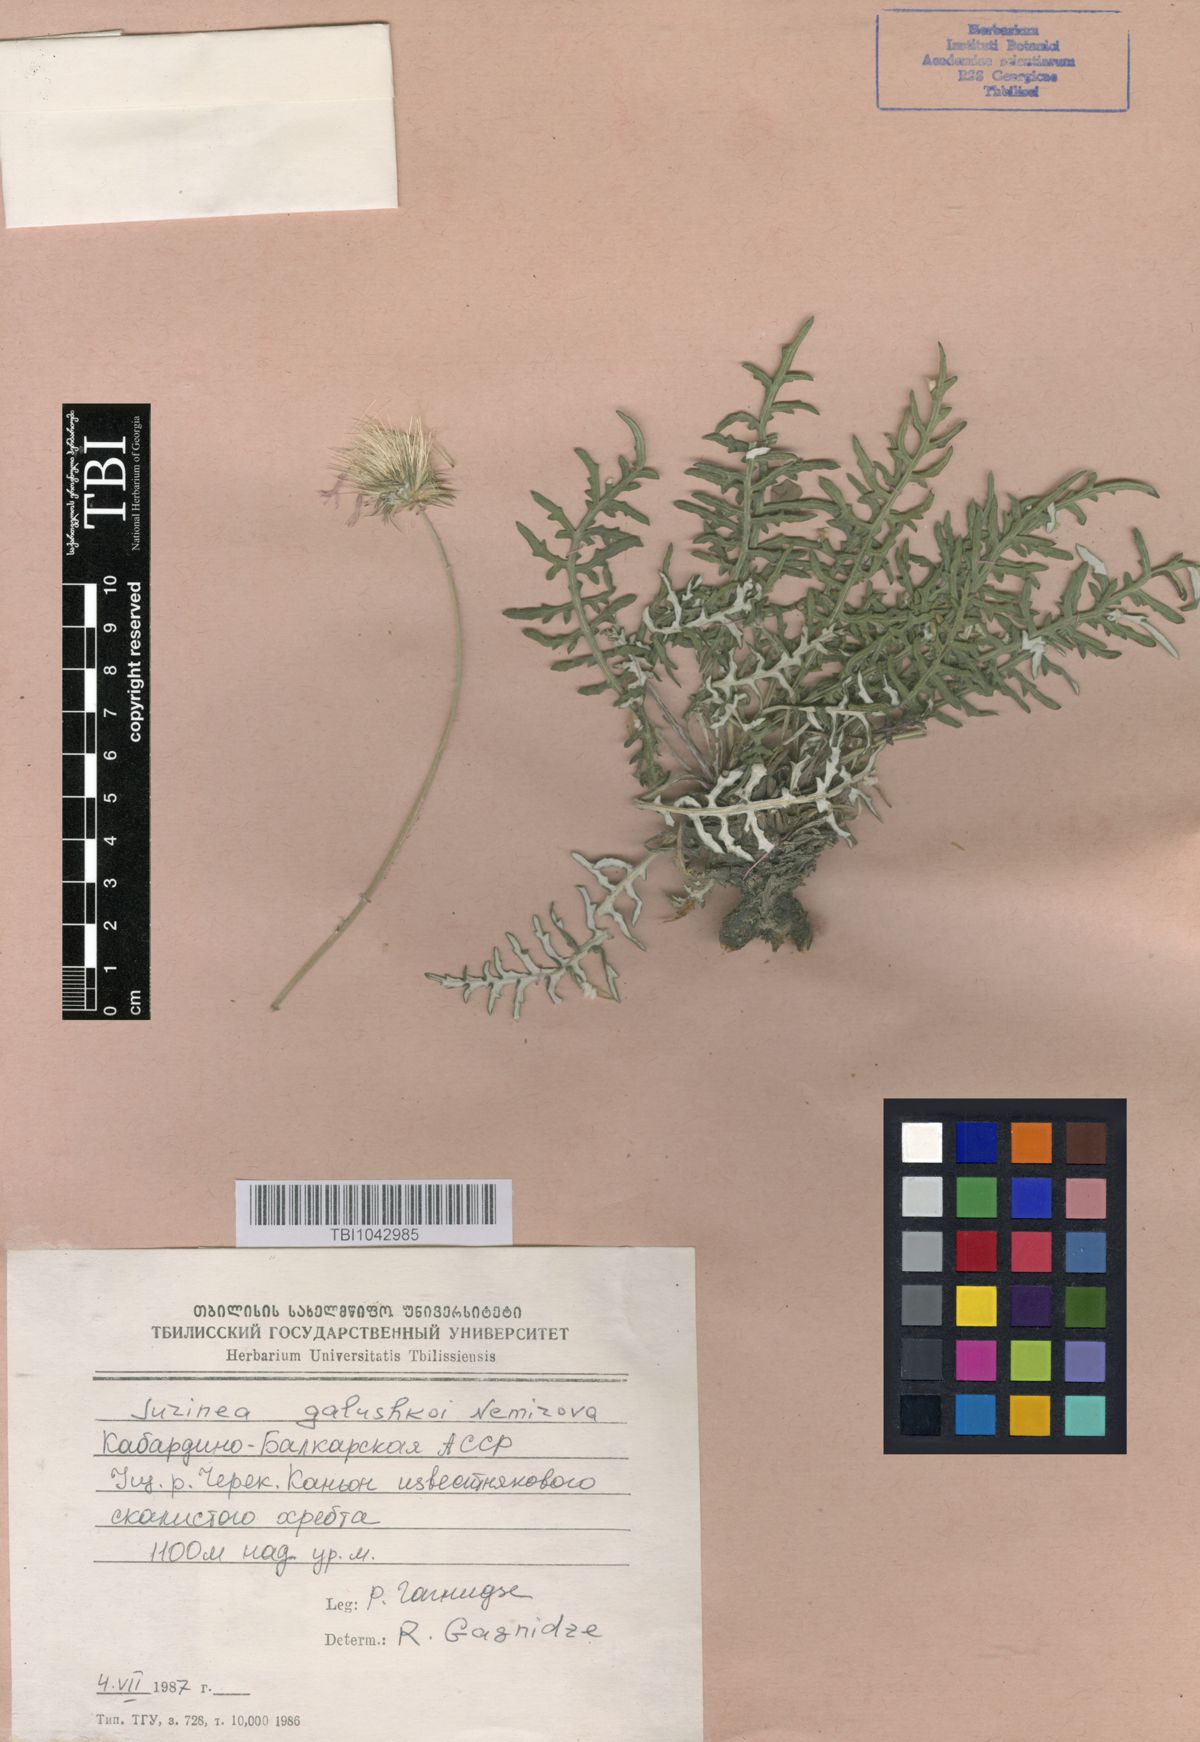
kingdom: Plantae
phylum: Tracheophyta
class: Magnoliopsida
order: Asterales
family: Asteraceae
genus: Jurinea
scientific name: Jurinea galushkoi
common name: Galushko's jurinea
